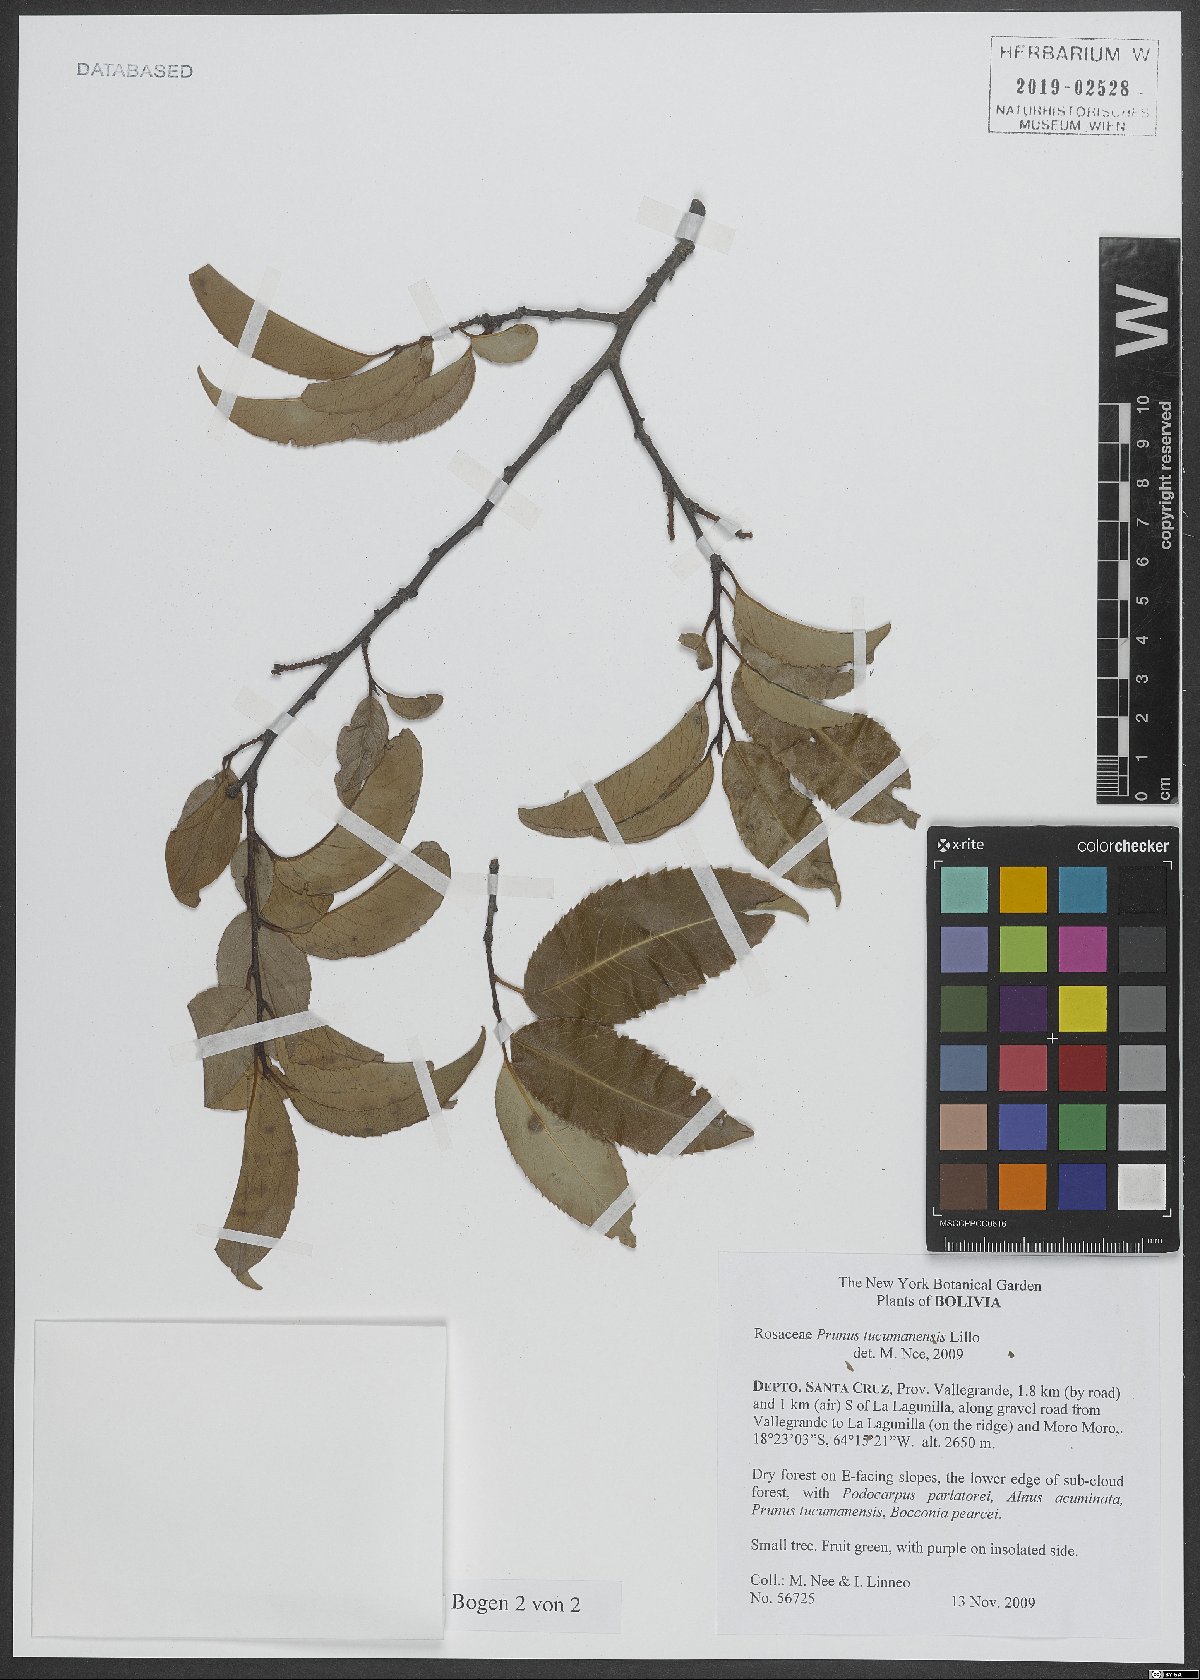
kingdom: Plantae
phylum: Tracheophyta
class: Magnoliopsida
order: Rosales
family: Rosaceae
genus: Prunus
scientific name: Prunus tucumanensis
